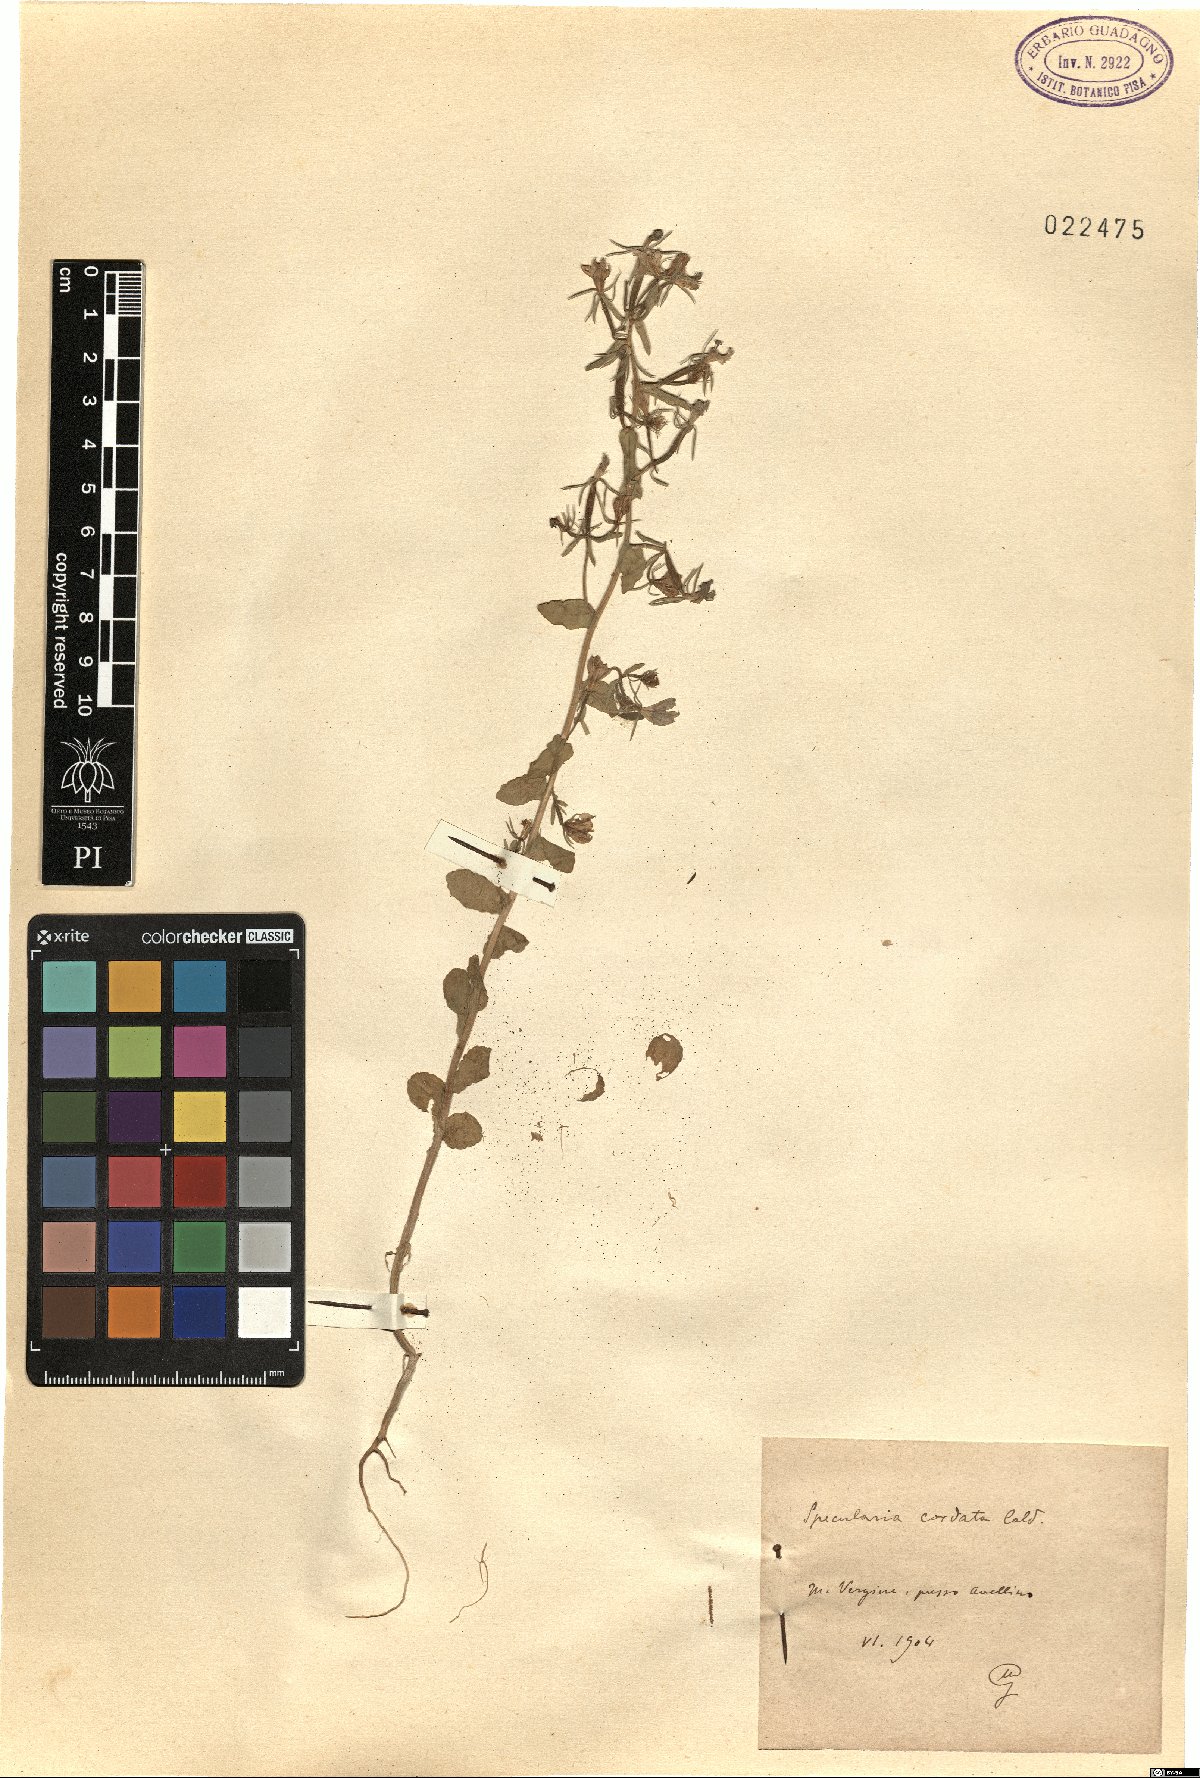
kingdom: Plantae
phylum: Tracheophyta
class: Magnoliopsida
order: Asterales
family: Campanulaceae
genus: Legousia
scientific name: Legousia speculum-veneris
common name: Large venus's-looking-glass
